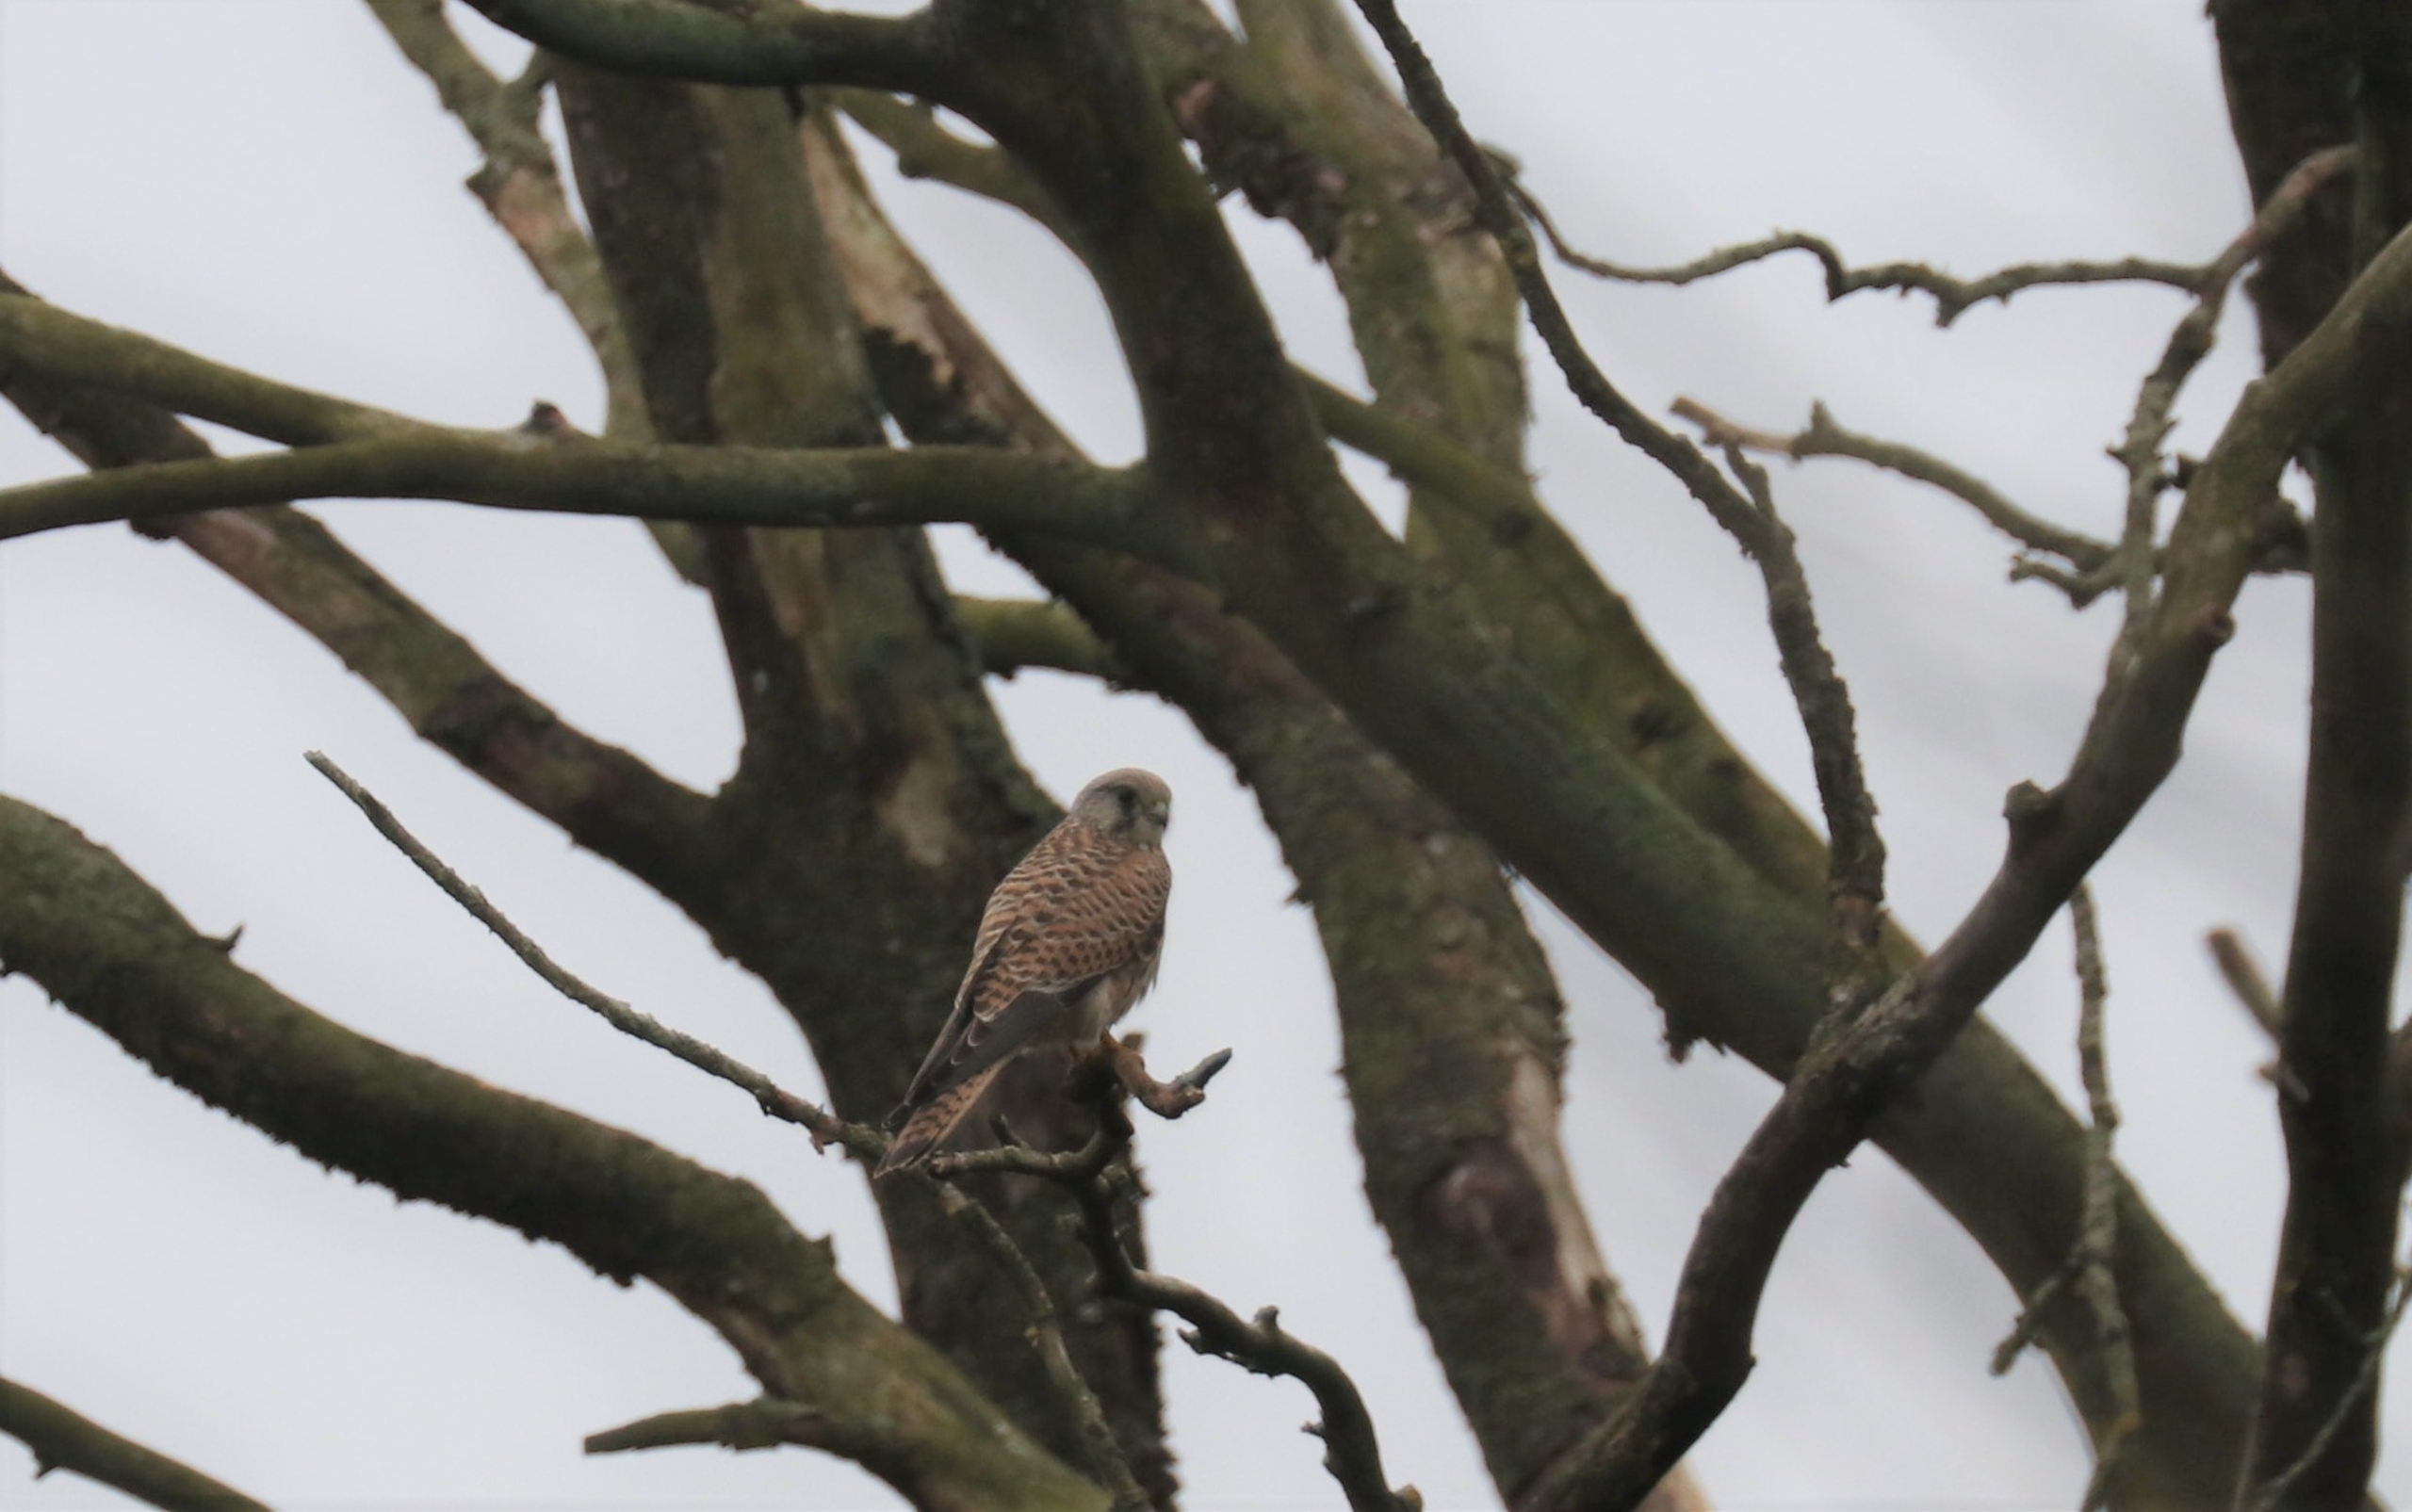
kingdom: Animalia
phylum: Chordata
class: Aves
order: Falconiformes
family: Falconidae
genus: Falco
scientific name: Falco tinnunculus
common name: Tårnfalk
